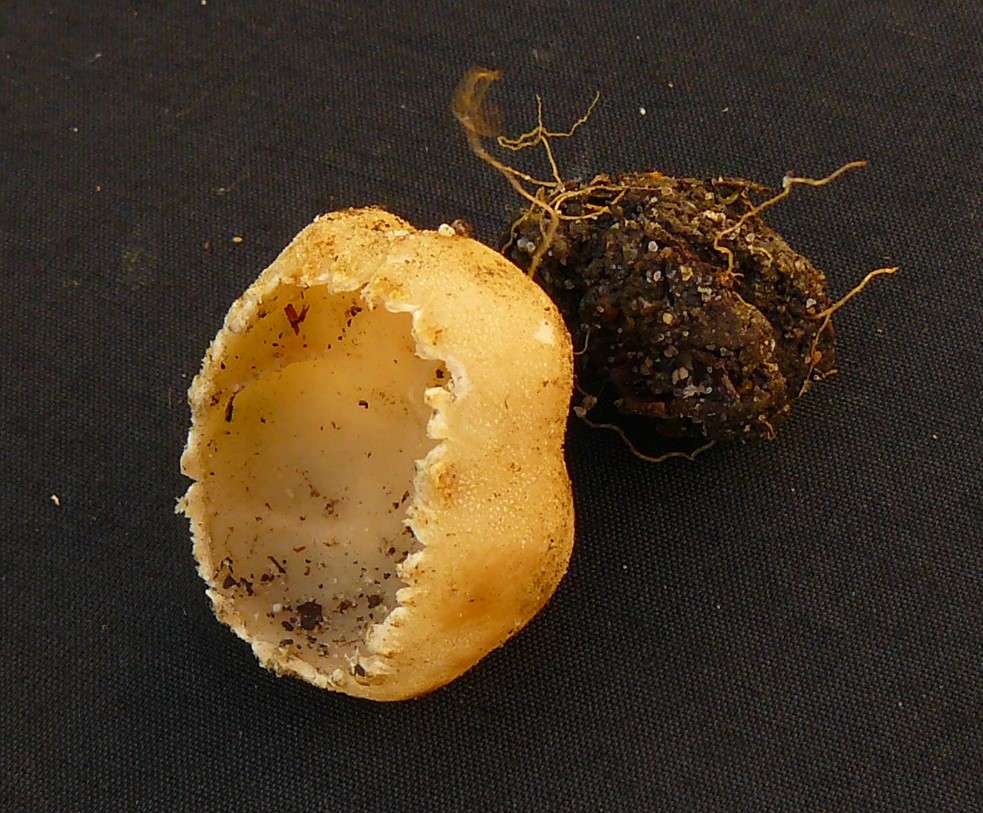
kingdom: Fungi
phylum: Ascomycota
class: Pezizomycetes
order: Pezizales
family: Pyronemataceae
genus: Tarzetta
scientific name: Tarzetta cupularis
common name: gulbrun pokalbæger
